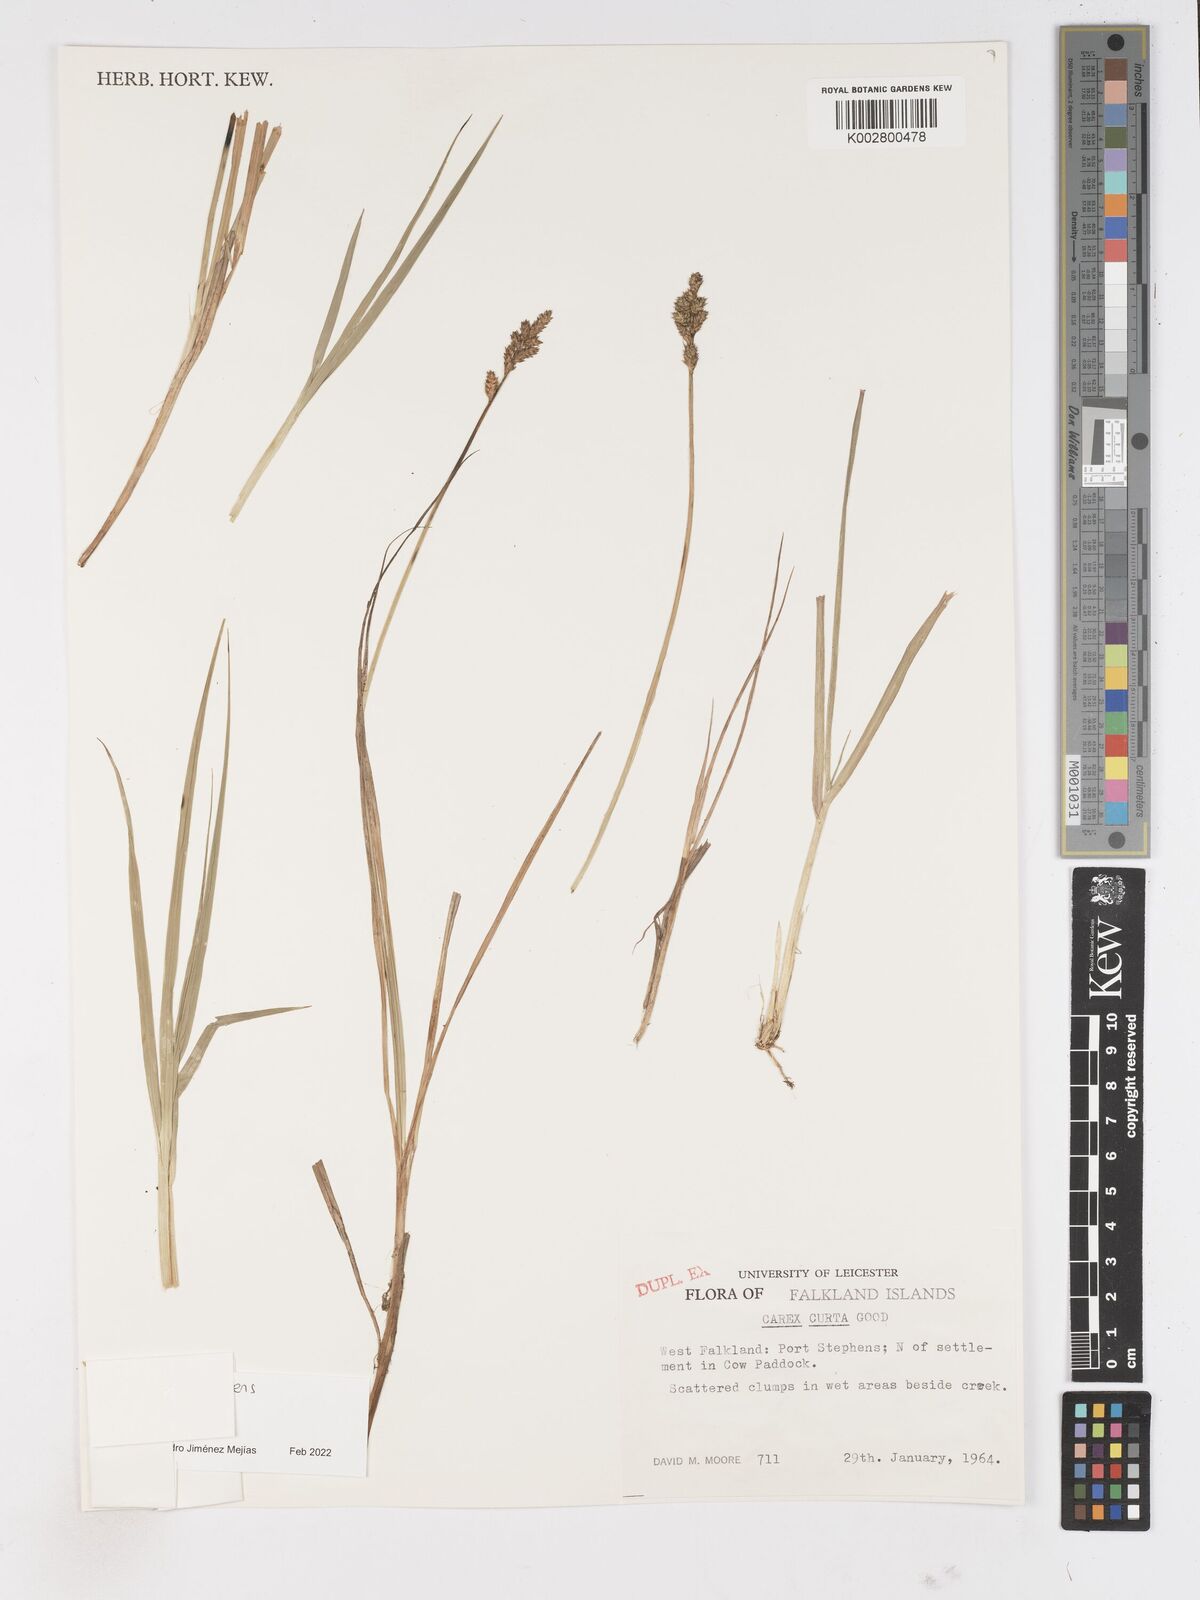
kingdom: Plantae
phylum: Tracheophyta
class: Liliopsida
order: Poales
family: Cyperaceae
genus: Carex
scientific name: Carex curta
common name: White sedge
